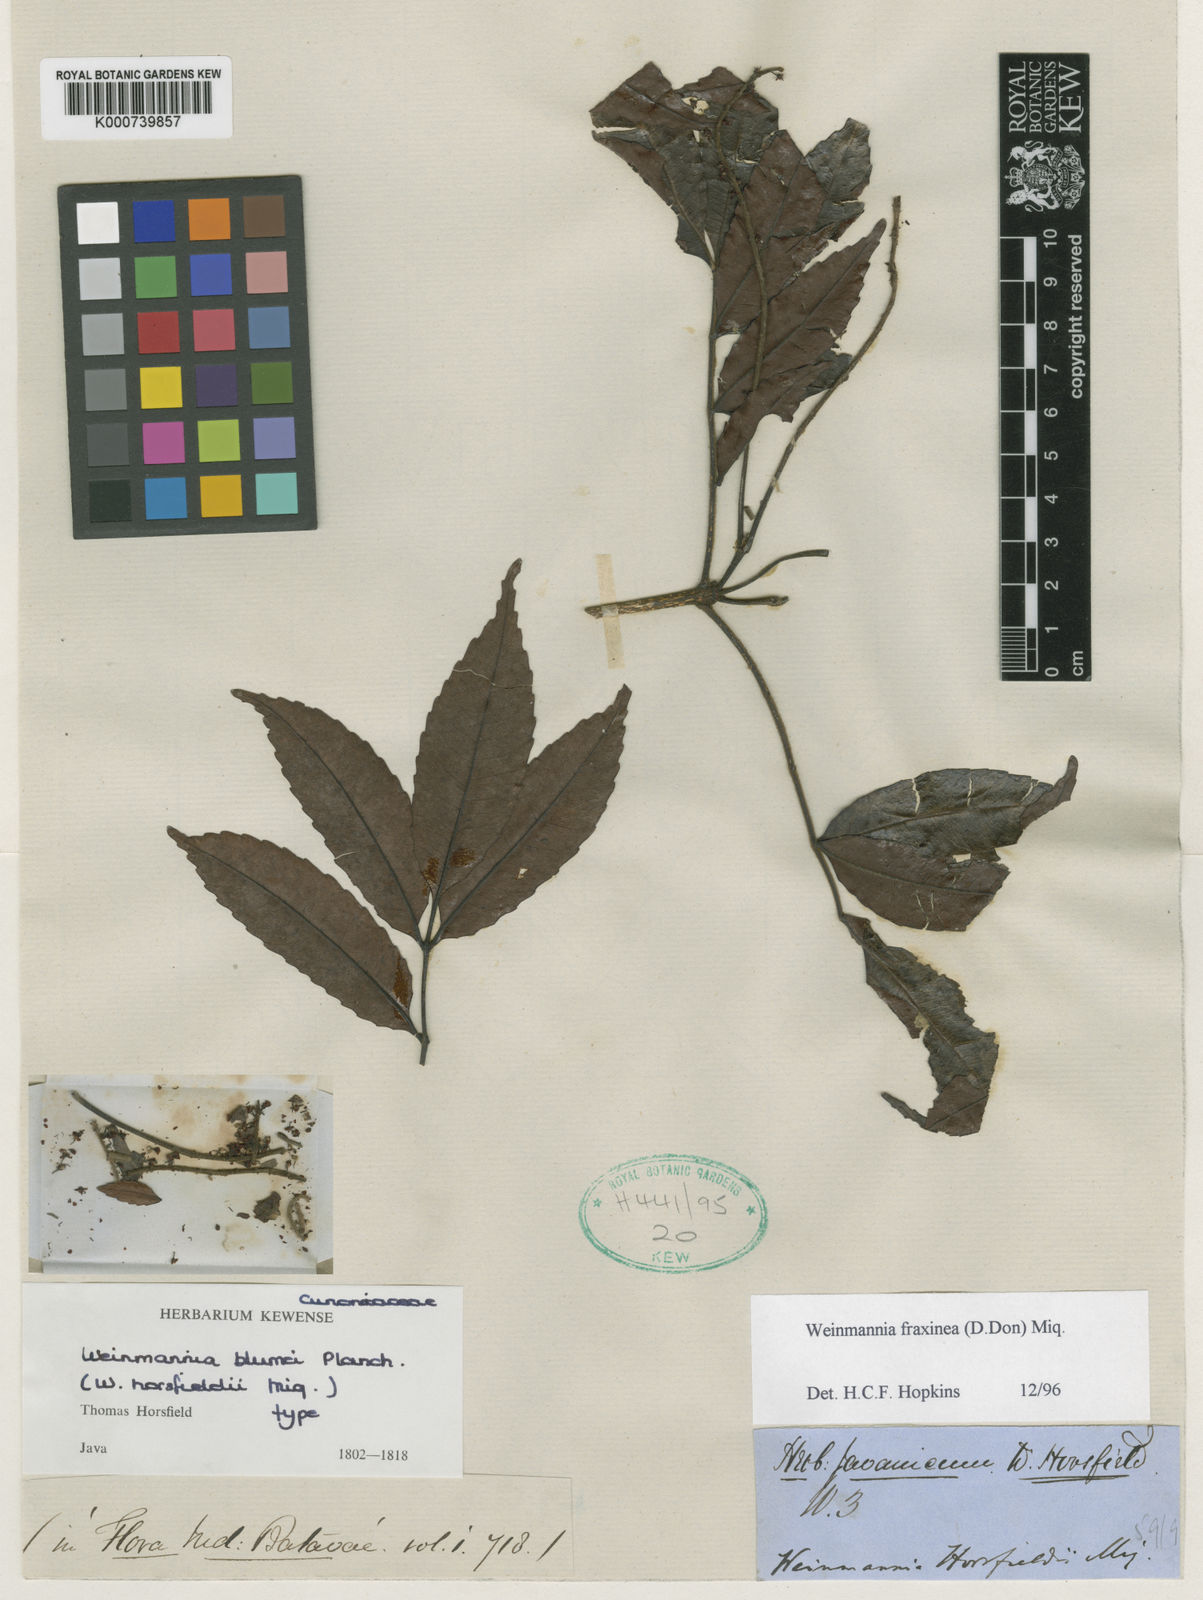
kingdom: Plantae
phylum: Tracheophyta
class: Magnoliopsida
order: Oxalidales
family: Cunoniaceae
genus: Pterophylla
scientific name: Pterophylla fraxinea
